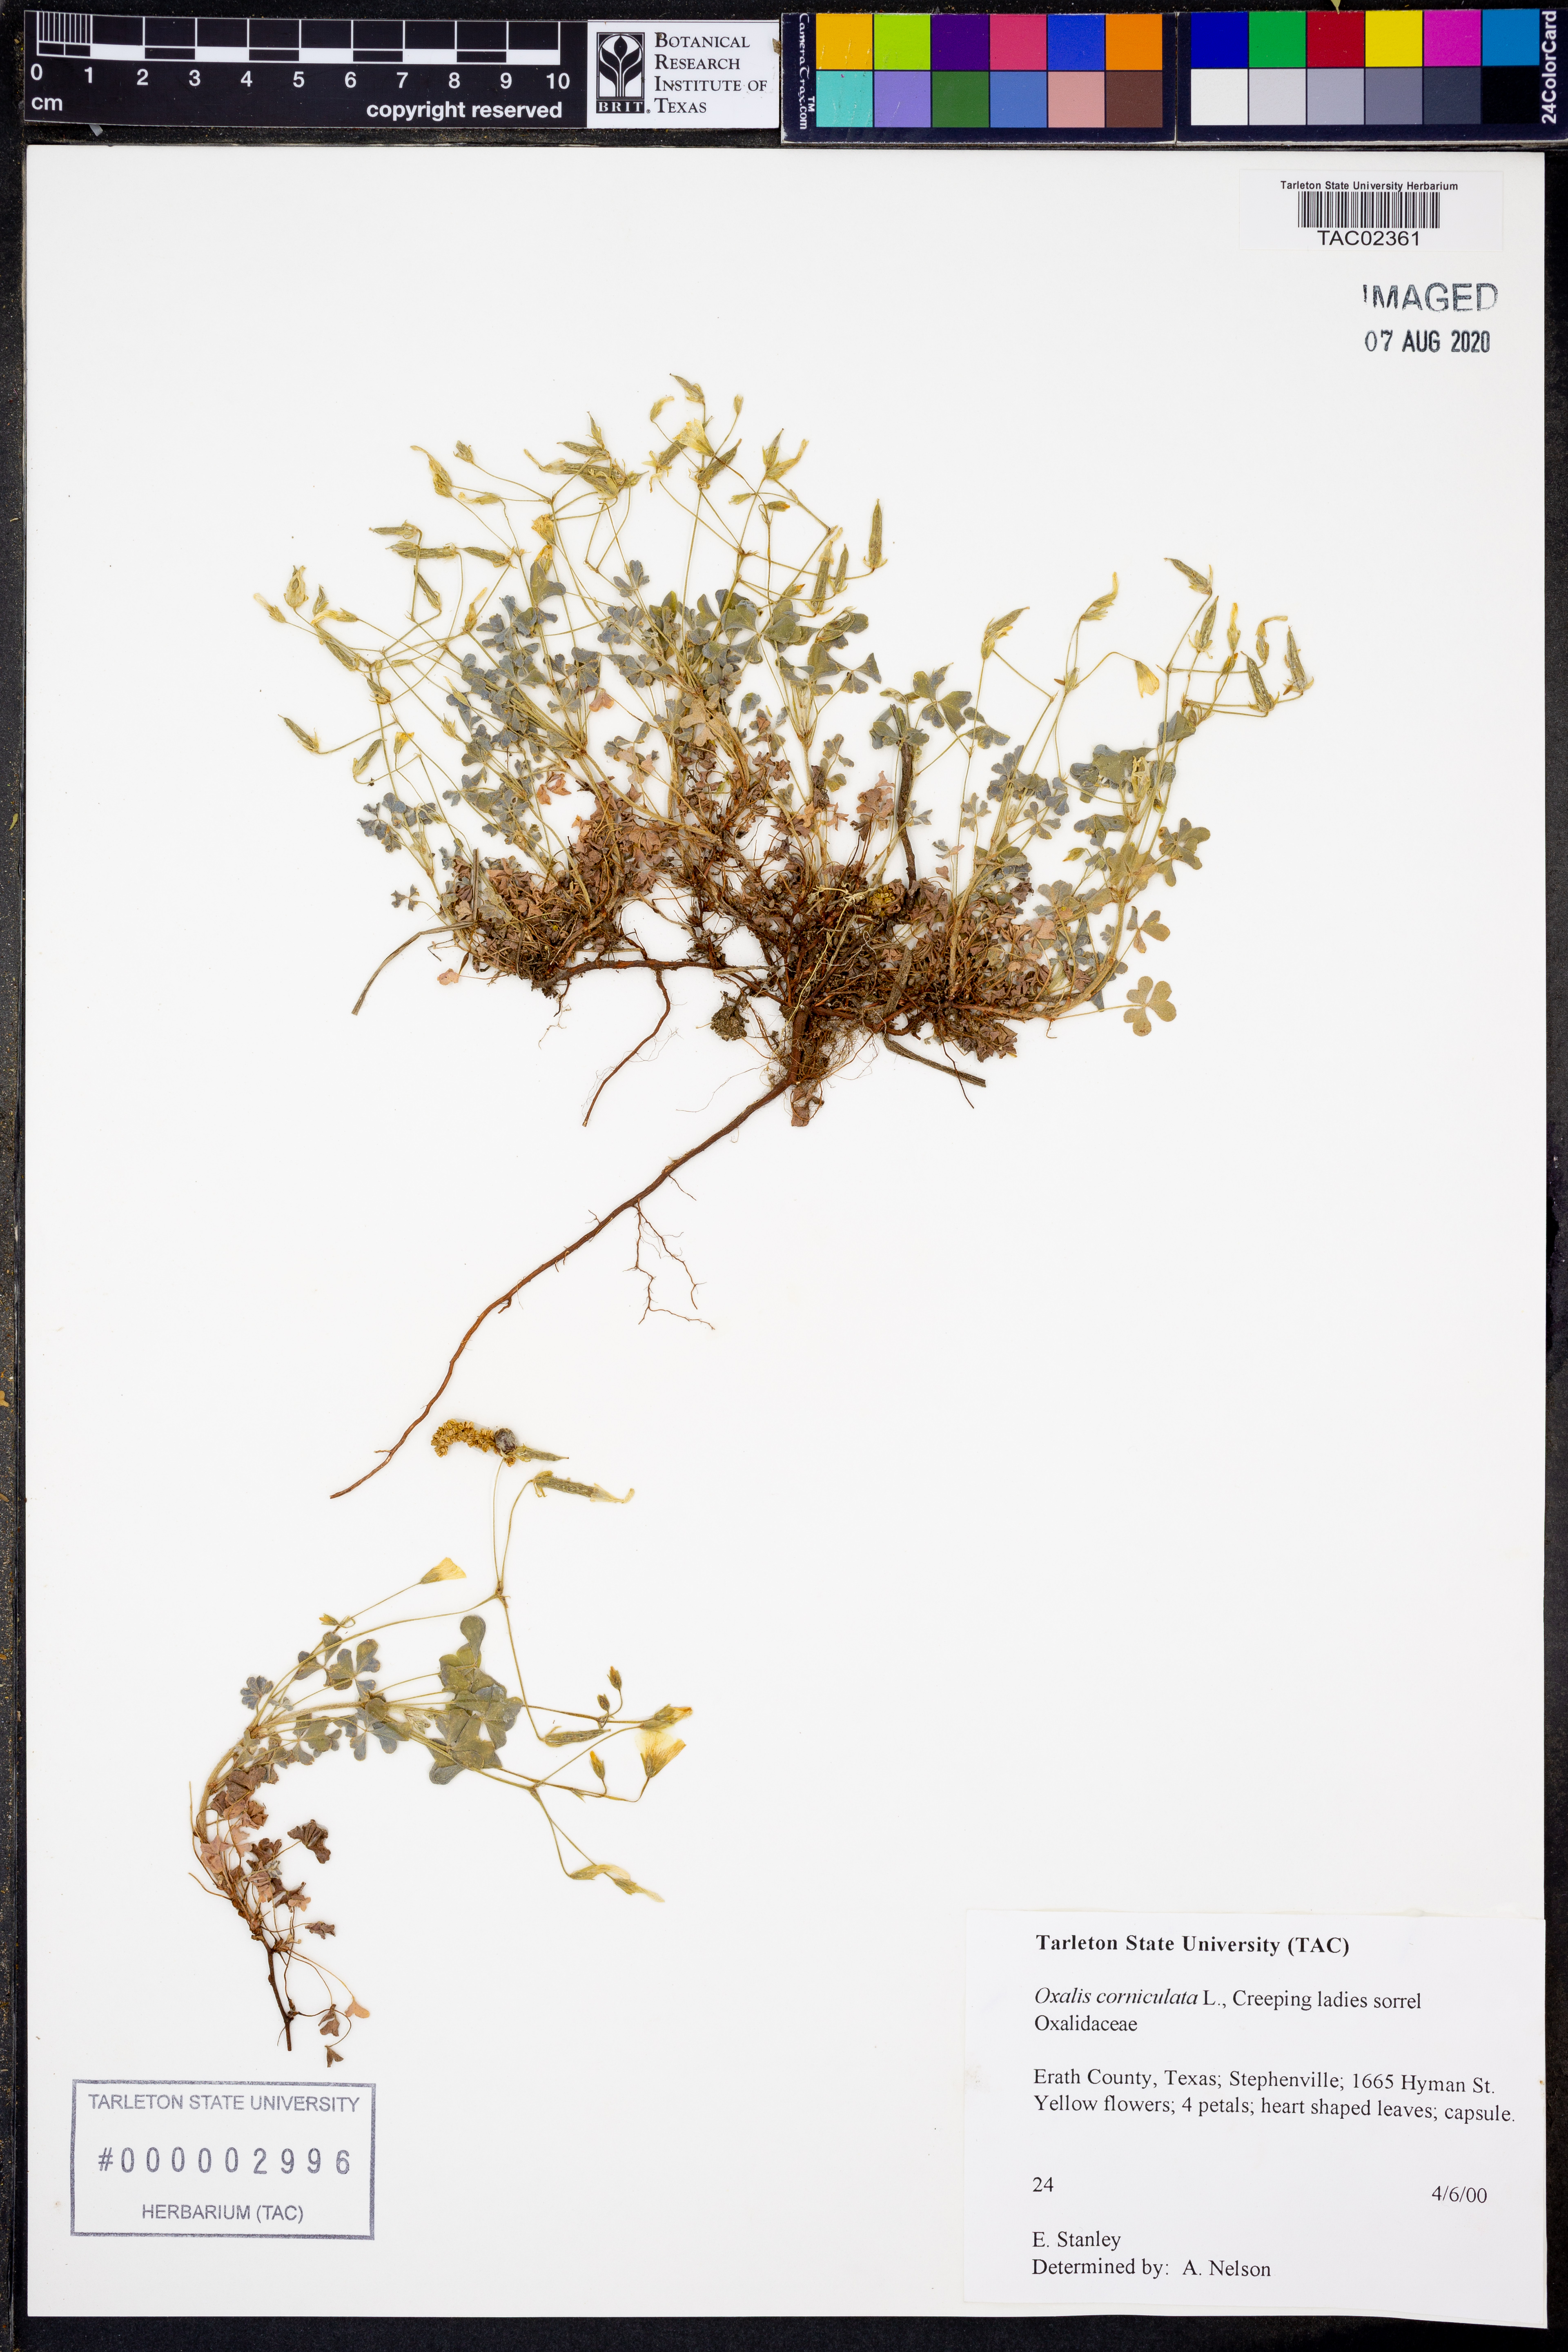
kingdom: Plantae
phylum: Tracheophyta
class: Magnoliopsida
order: Oxalidales
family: Oxalidaceae
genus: Oxalis
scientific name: Oxalis corniculata
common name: Procumbent yellow-sorrel
